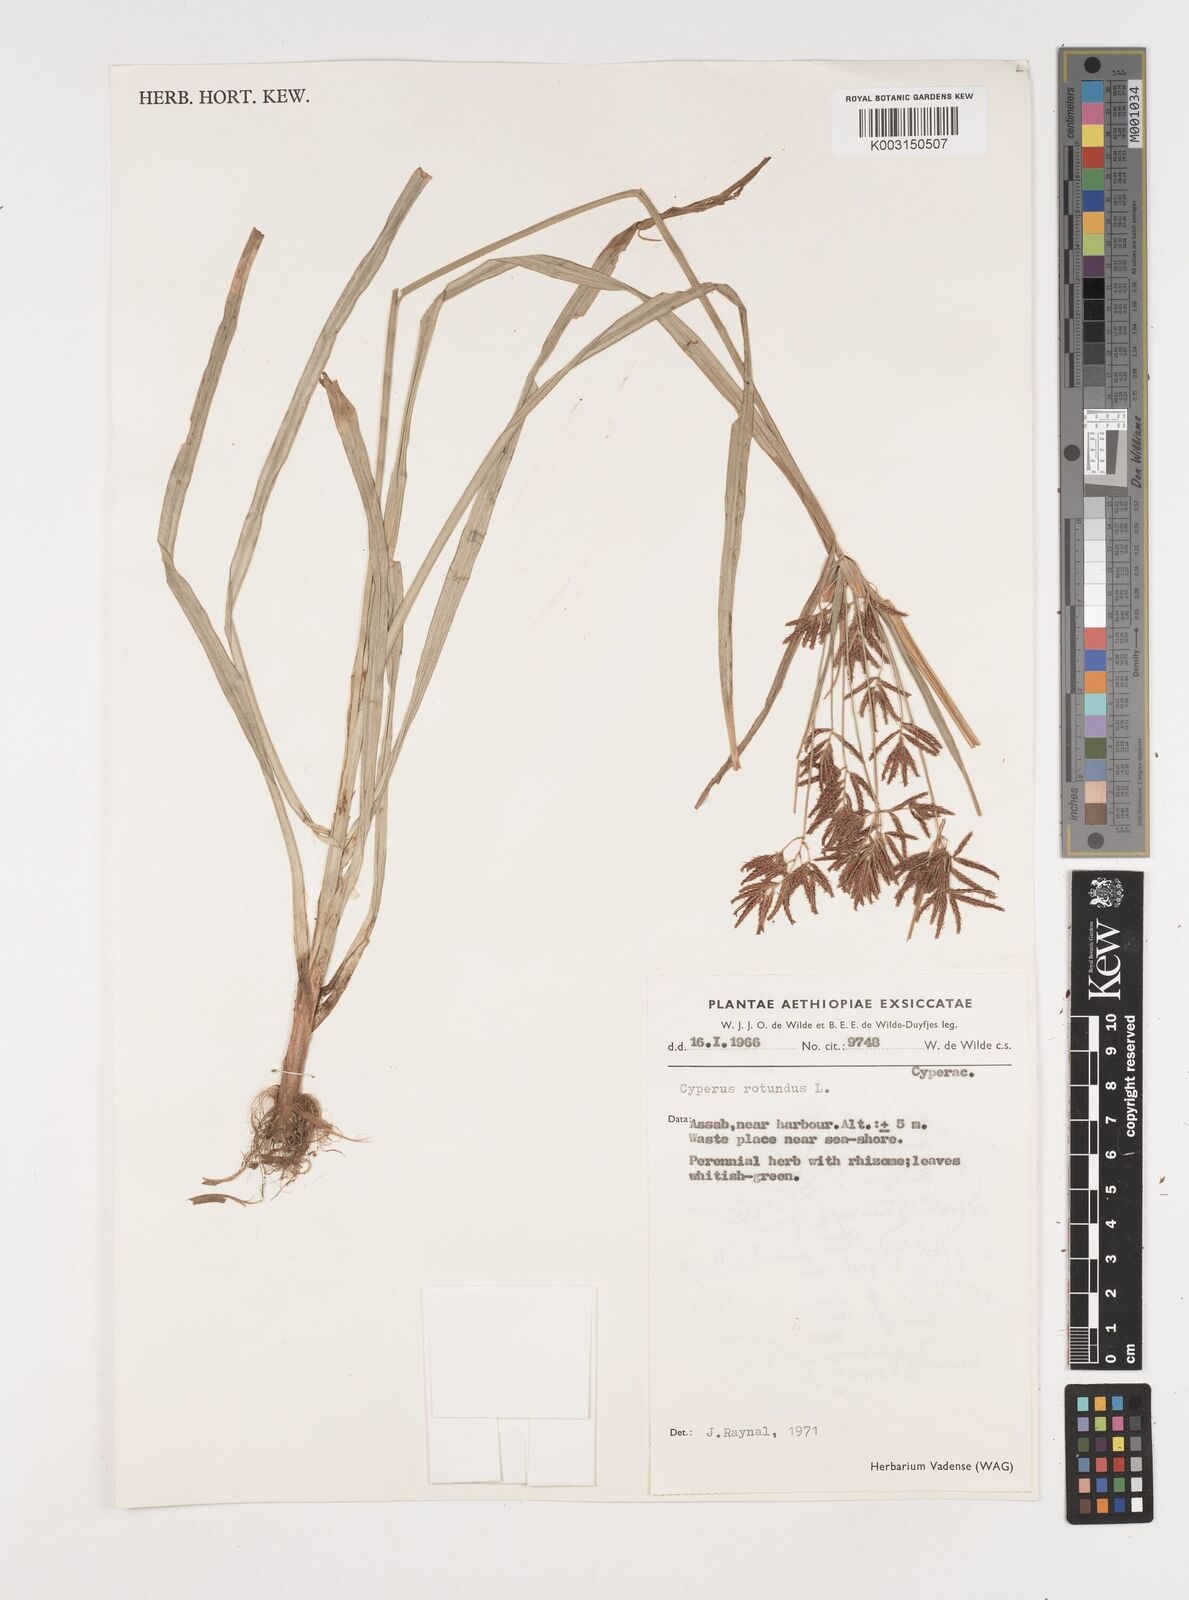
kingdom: Plantae
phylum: Tracheophyta
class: Liliopsida
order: Poales
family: Cyperaceae
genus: Cyperus
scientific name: Cyperus rotundus
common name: Nutgrass
